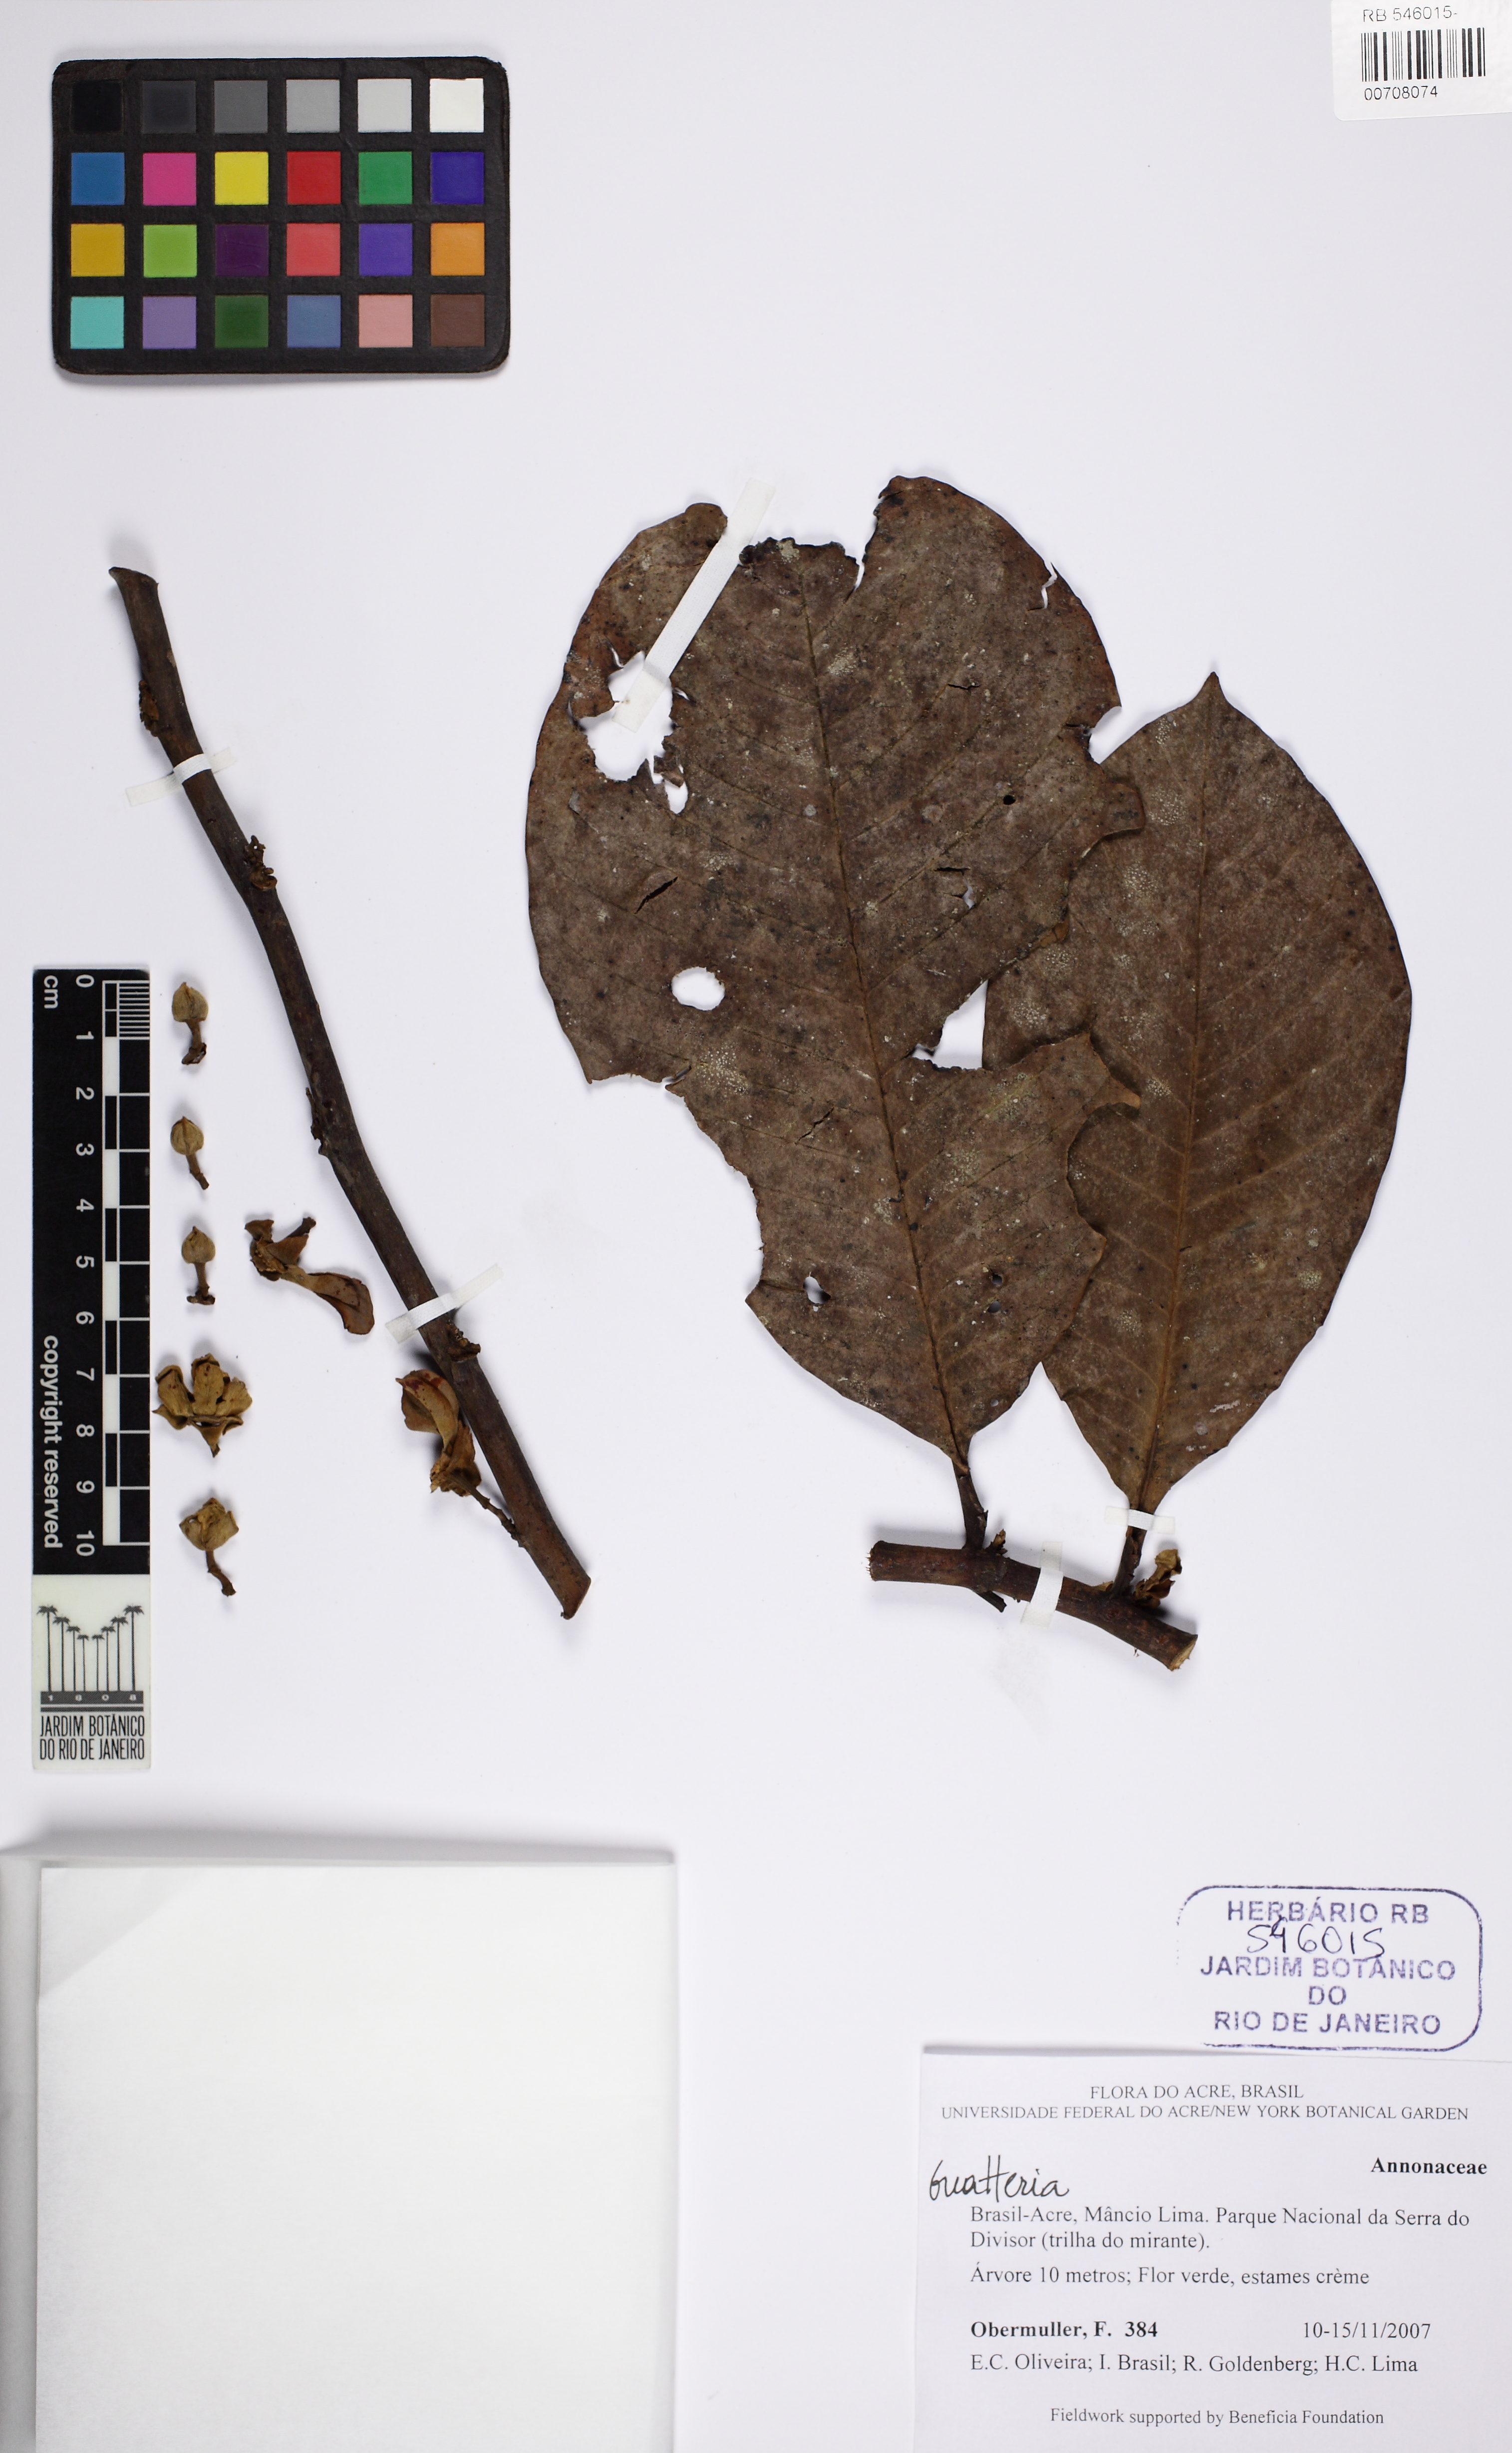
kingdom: Plantae
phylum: Tracheophyta
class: Magnoliopsida
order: Magnoliales
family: Annonaceae
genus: Guatteria
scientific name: Guatteria
